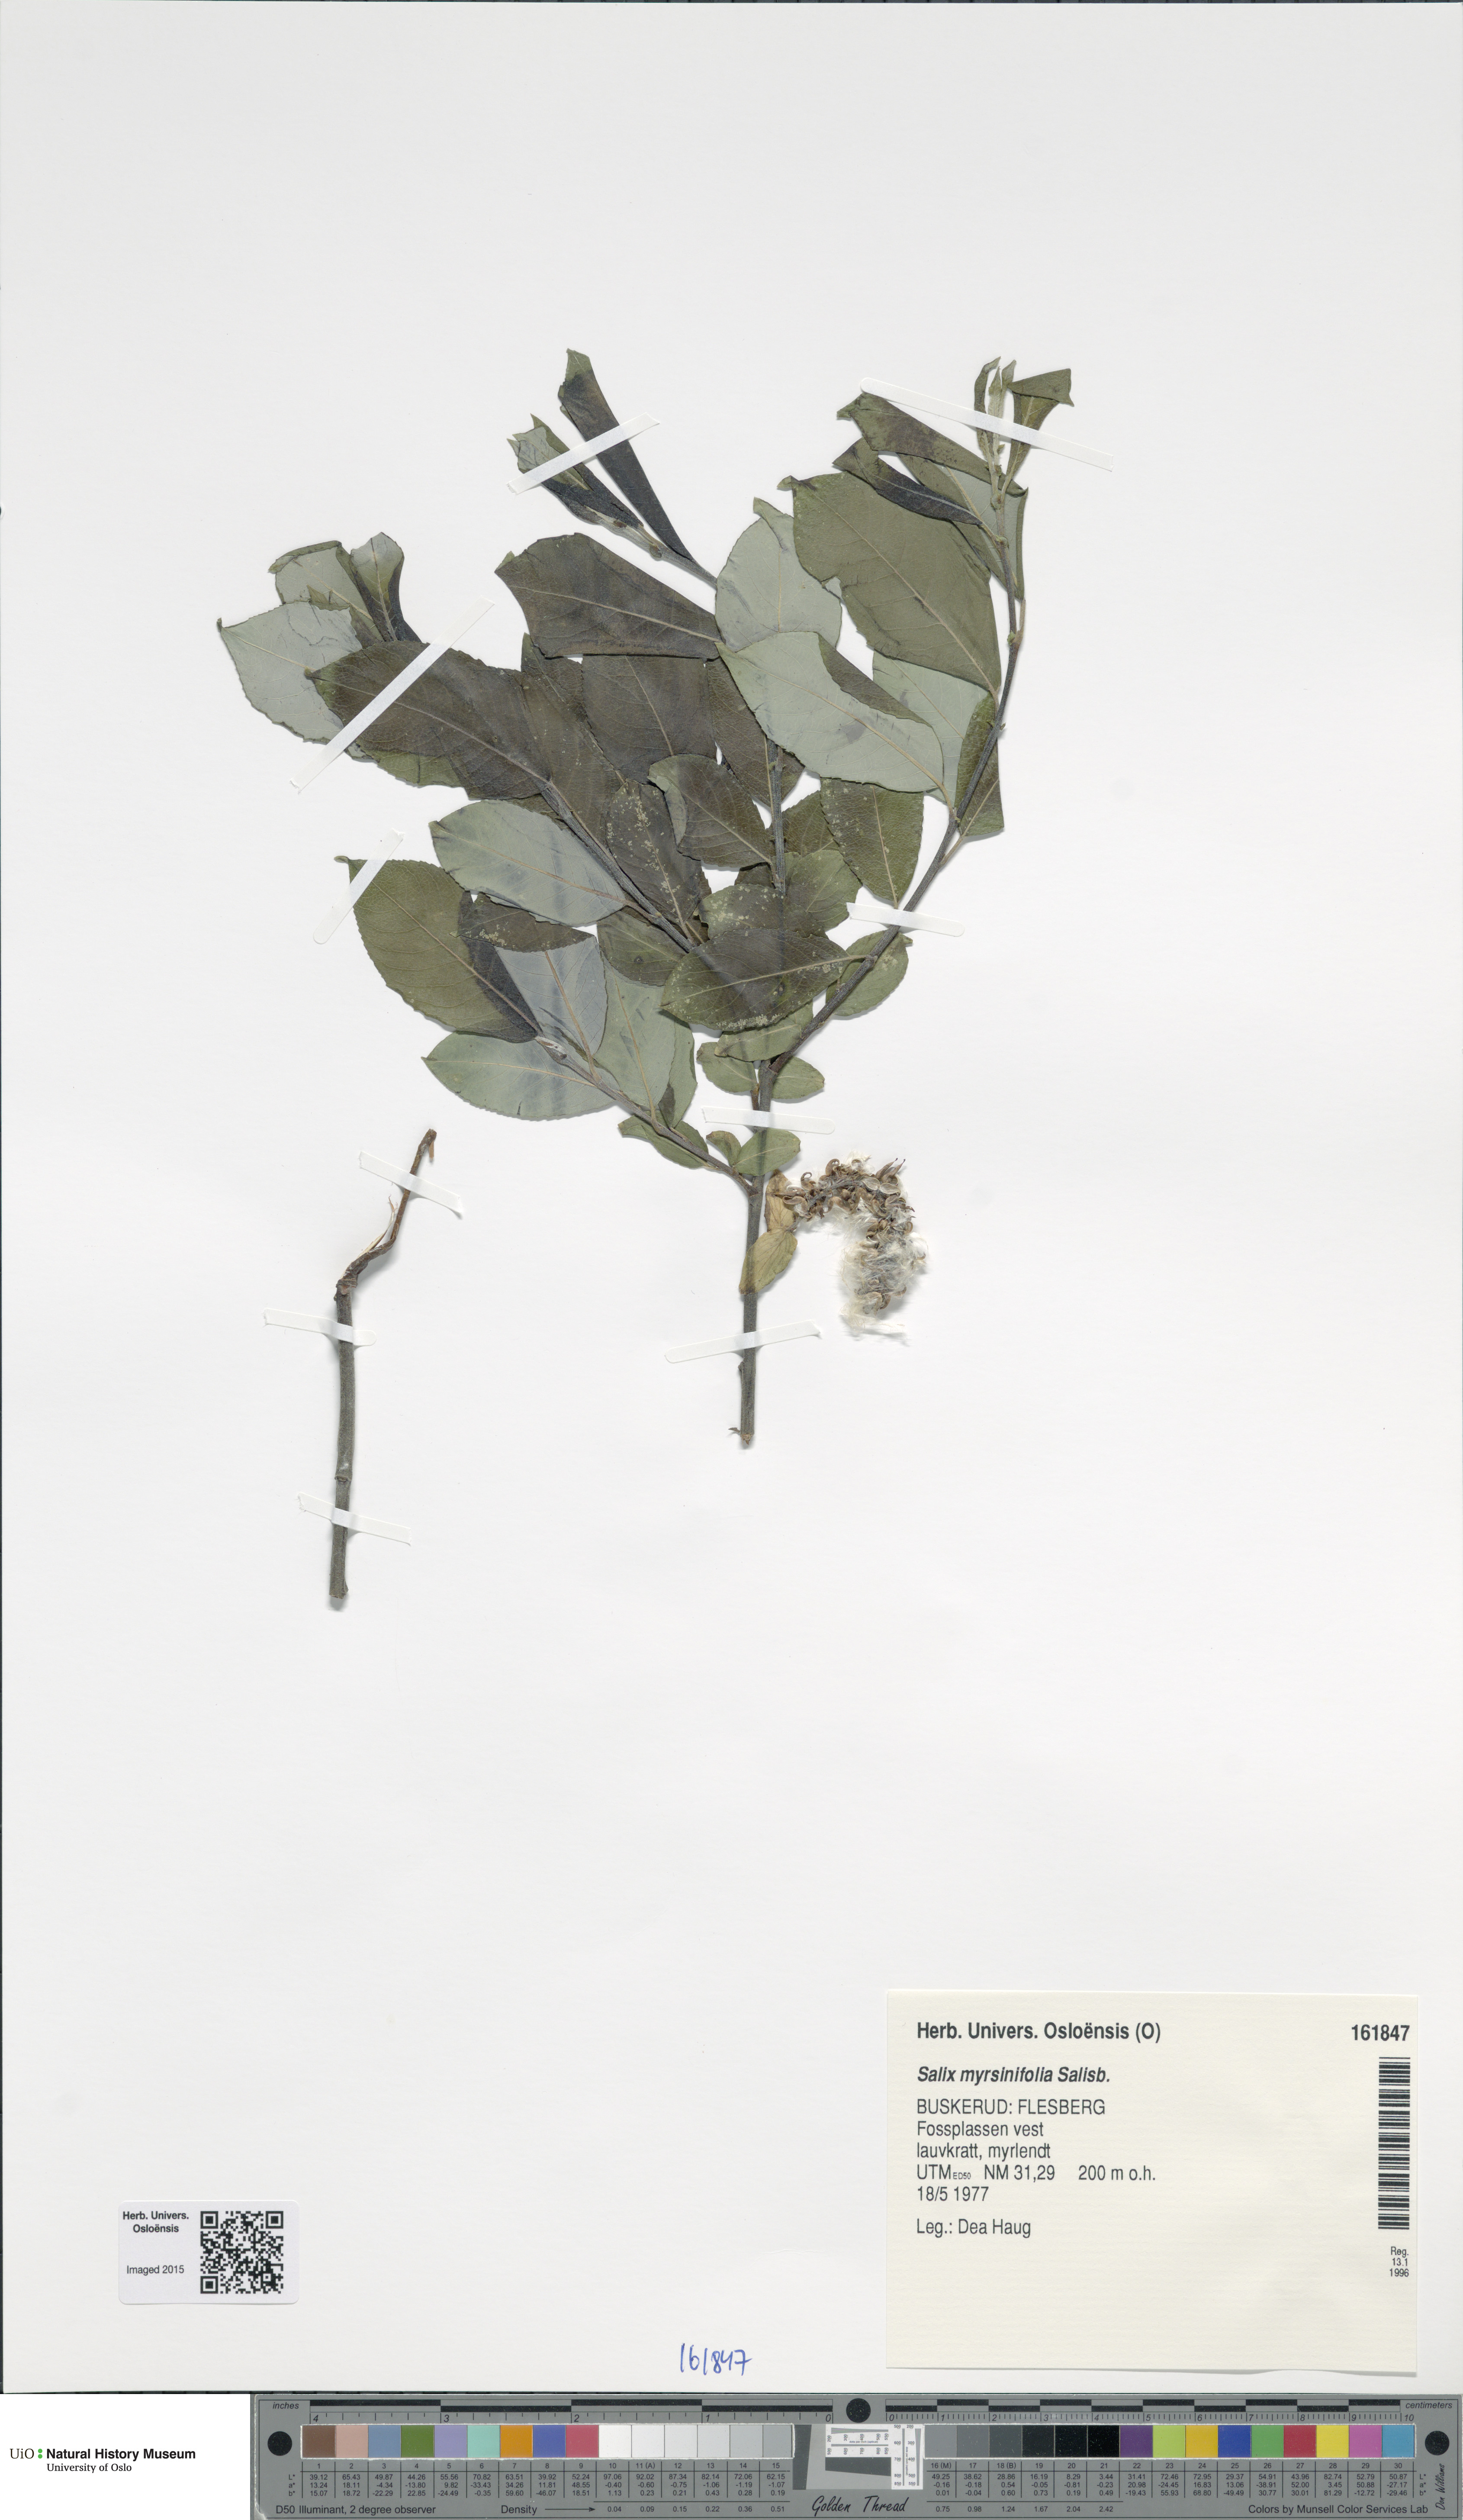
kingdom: Plantae
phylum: Tracheophyta
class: Magnoliopsida
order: Malpighiales
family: Salicaceae
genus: Salix
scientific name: Salix myrsinifolia
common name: Dark-leaved willow
